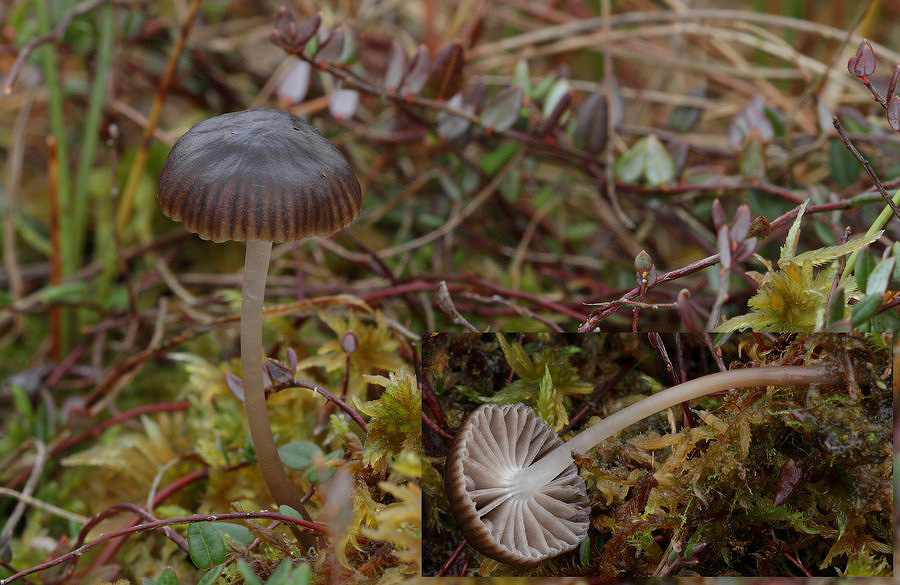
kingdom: Fungi
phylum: Basidiomycota
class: Agaricomycetes
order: Agaricales
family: Mycenaceae
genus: Mycena
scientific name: Mycena concolor
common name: tørvemos-huesvamp
